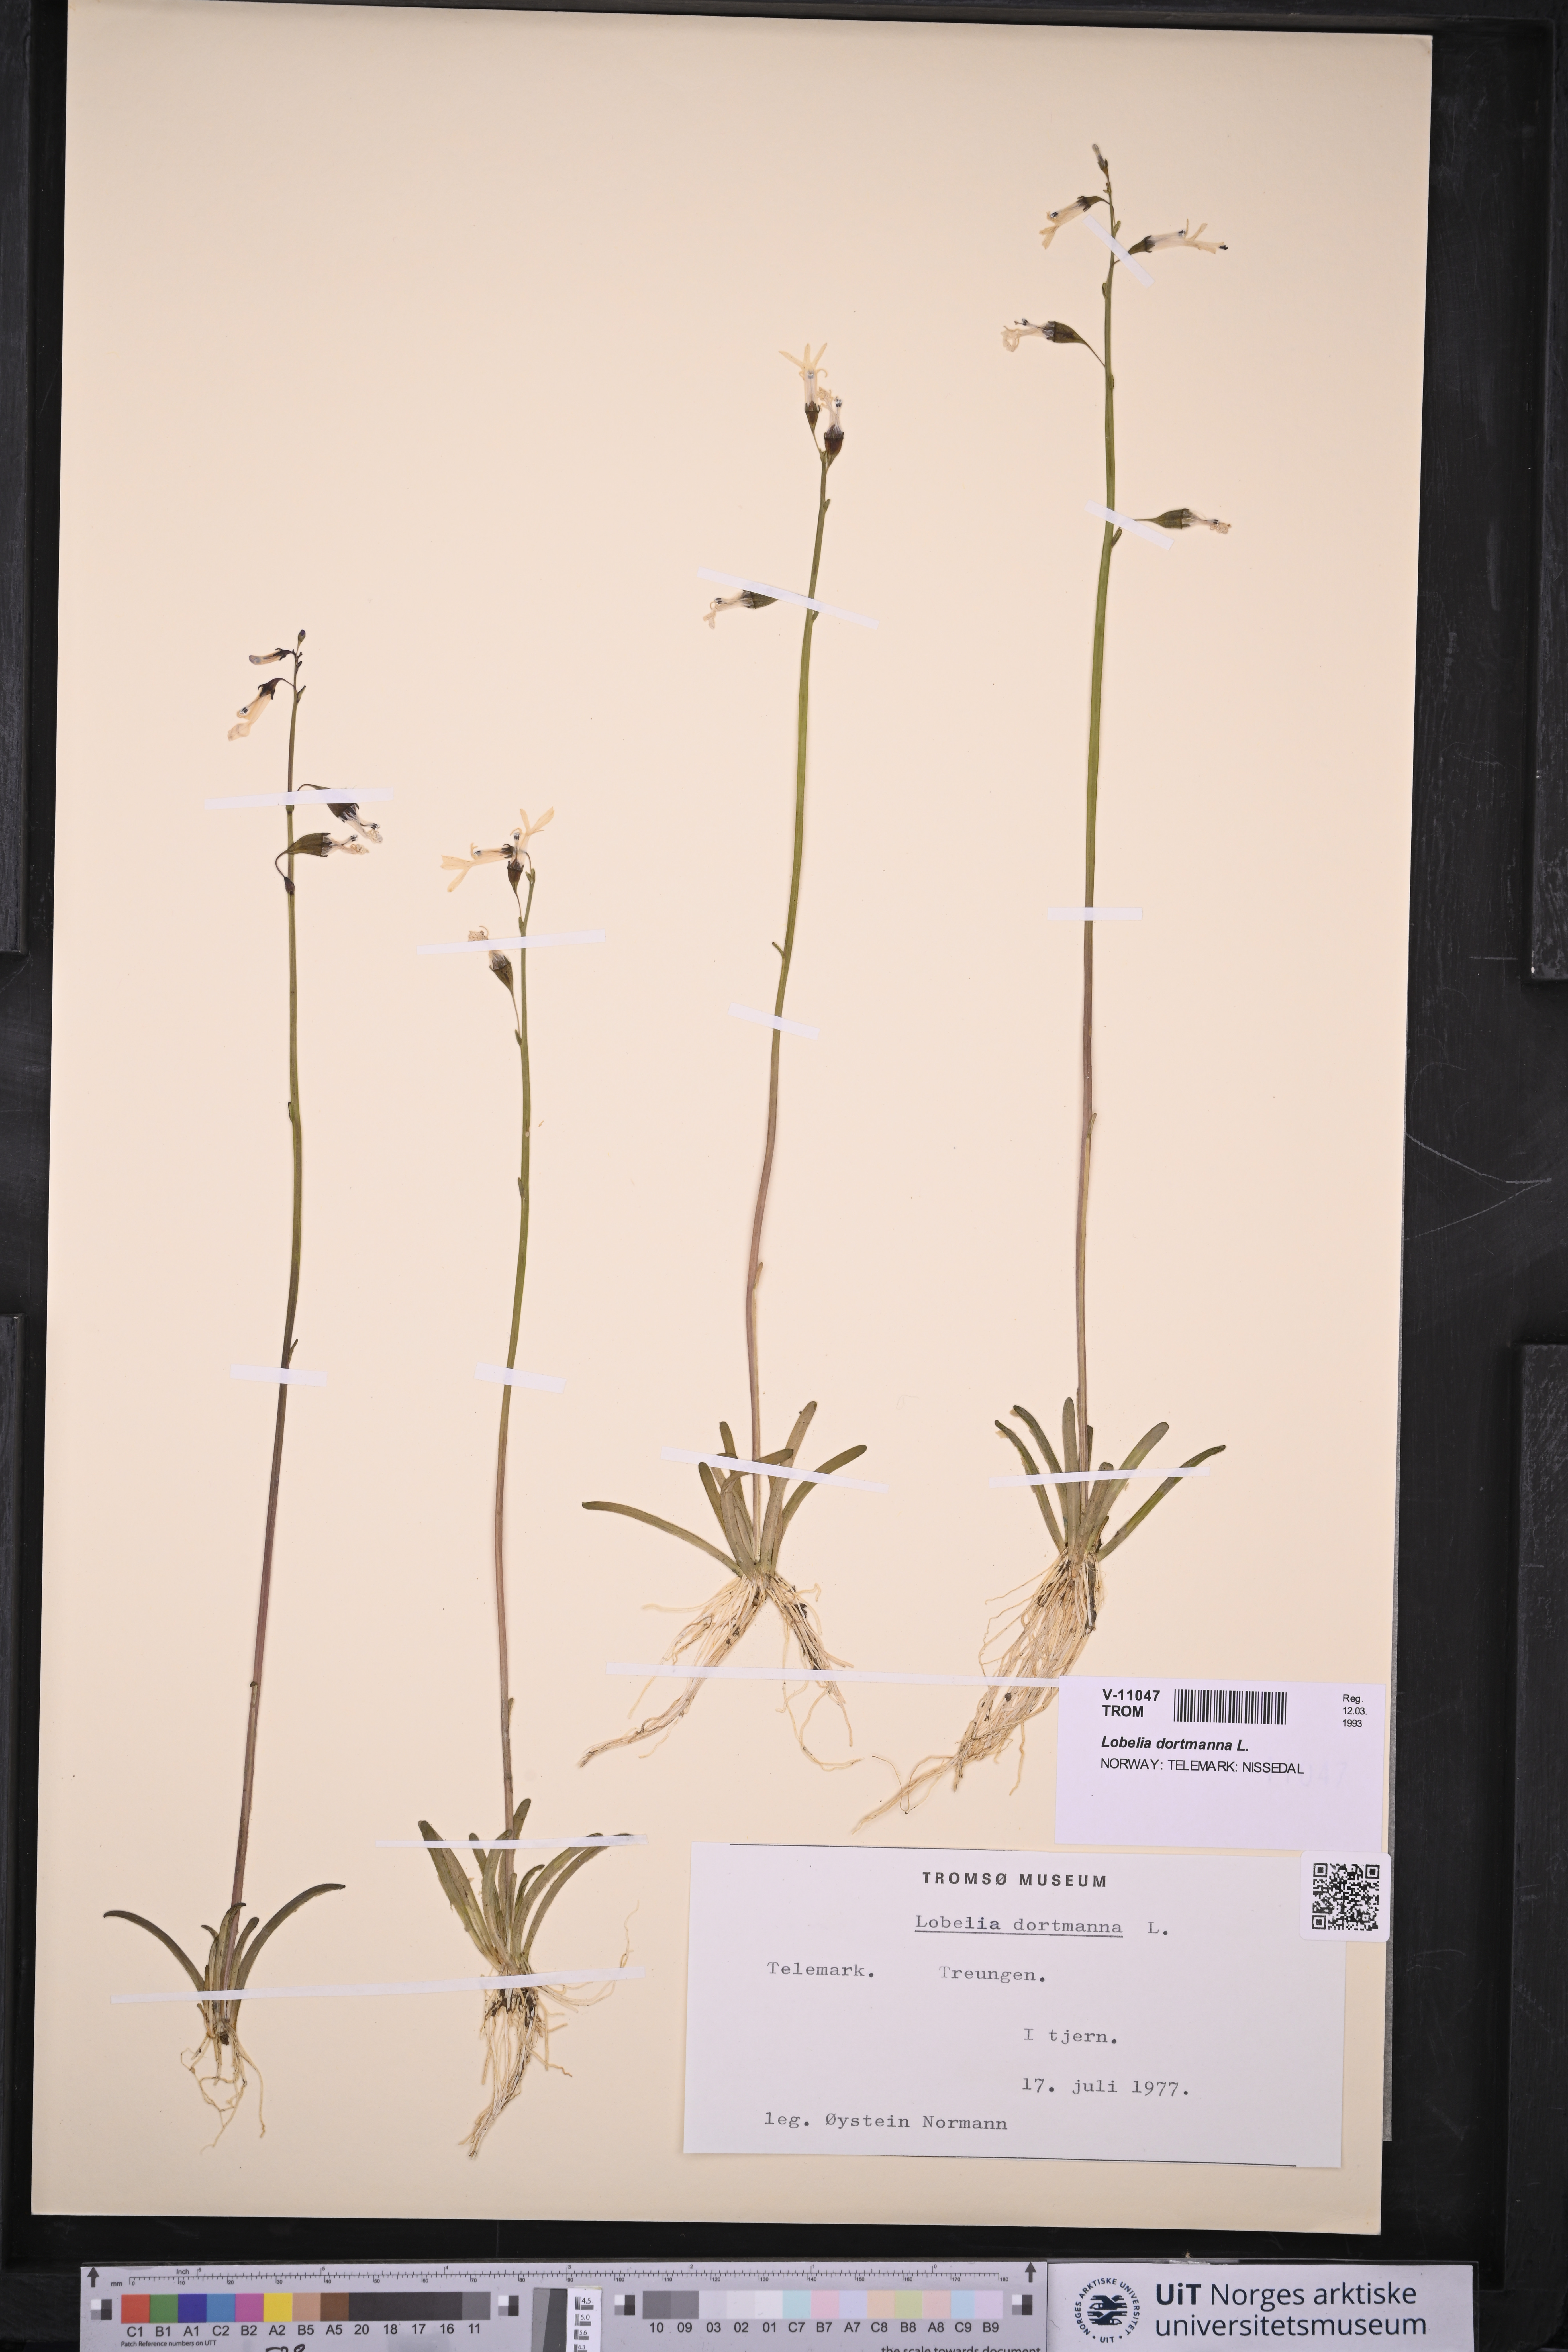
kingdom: Plantae
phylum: Tracheophyta
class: Magnoliopsida
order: Asterales
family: Campanulaceae
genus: Lobelia
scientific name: Lobelia dortmanna
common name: Water lobelia
